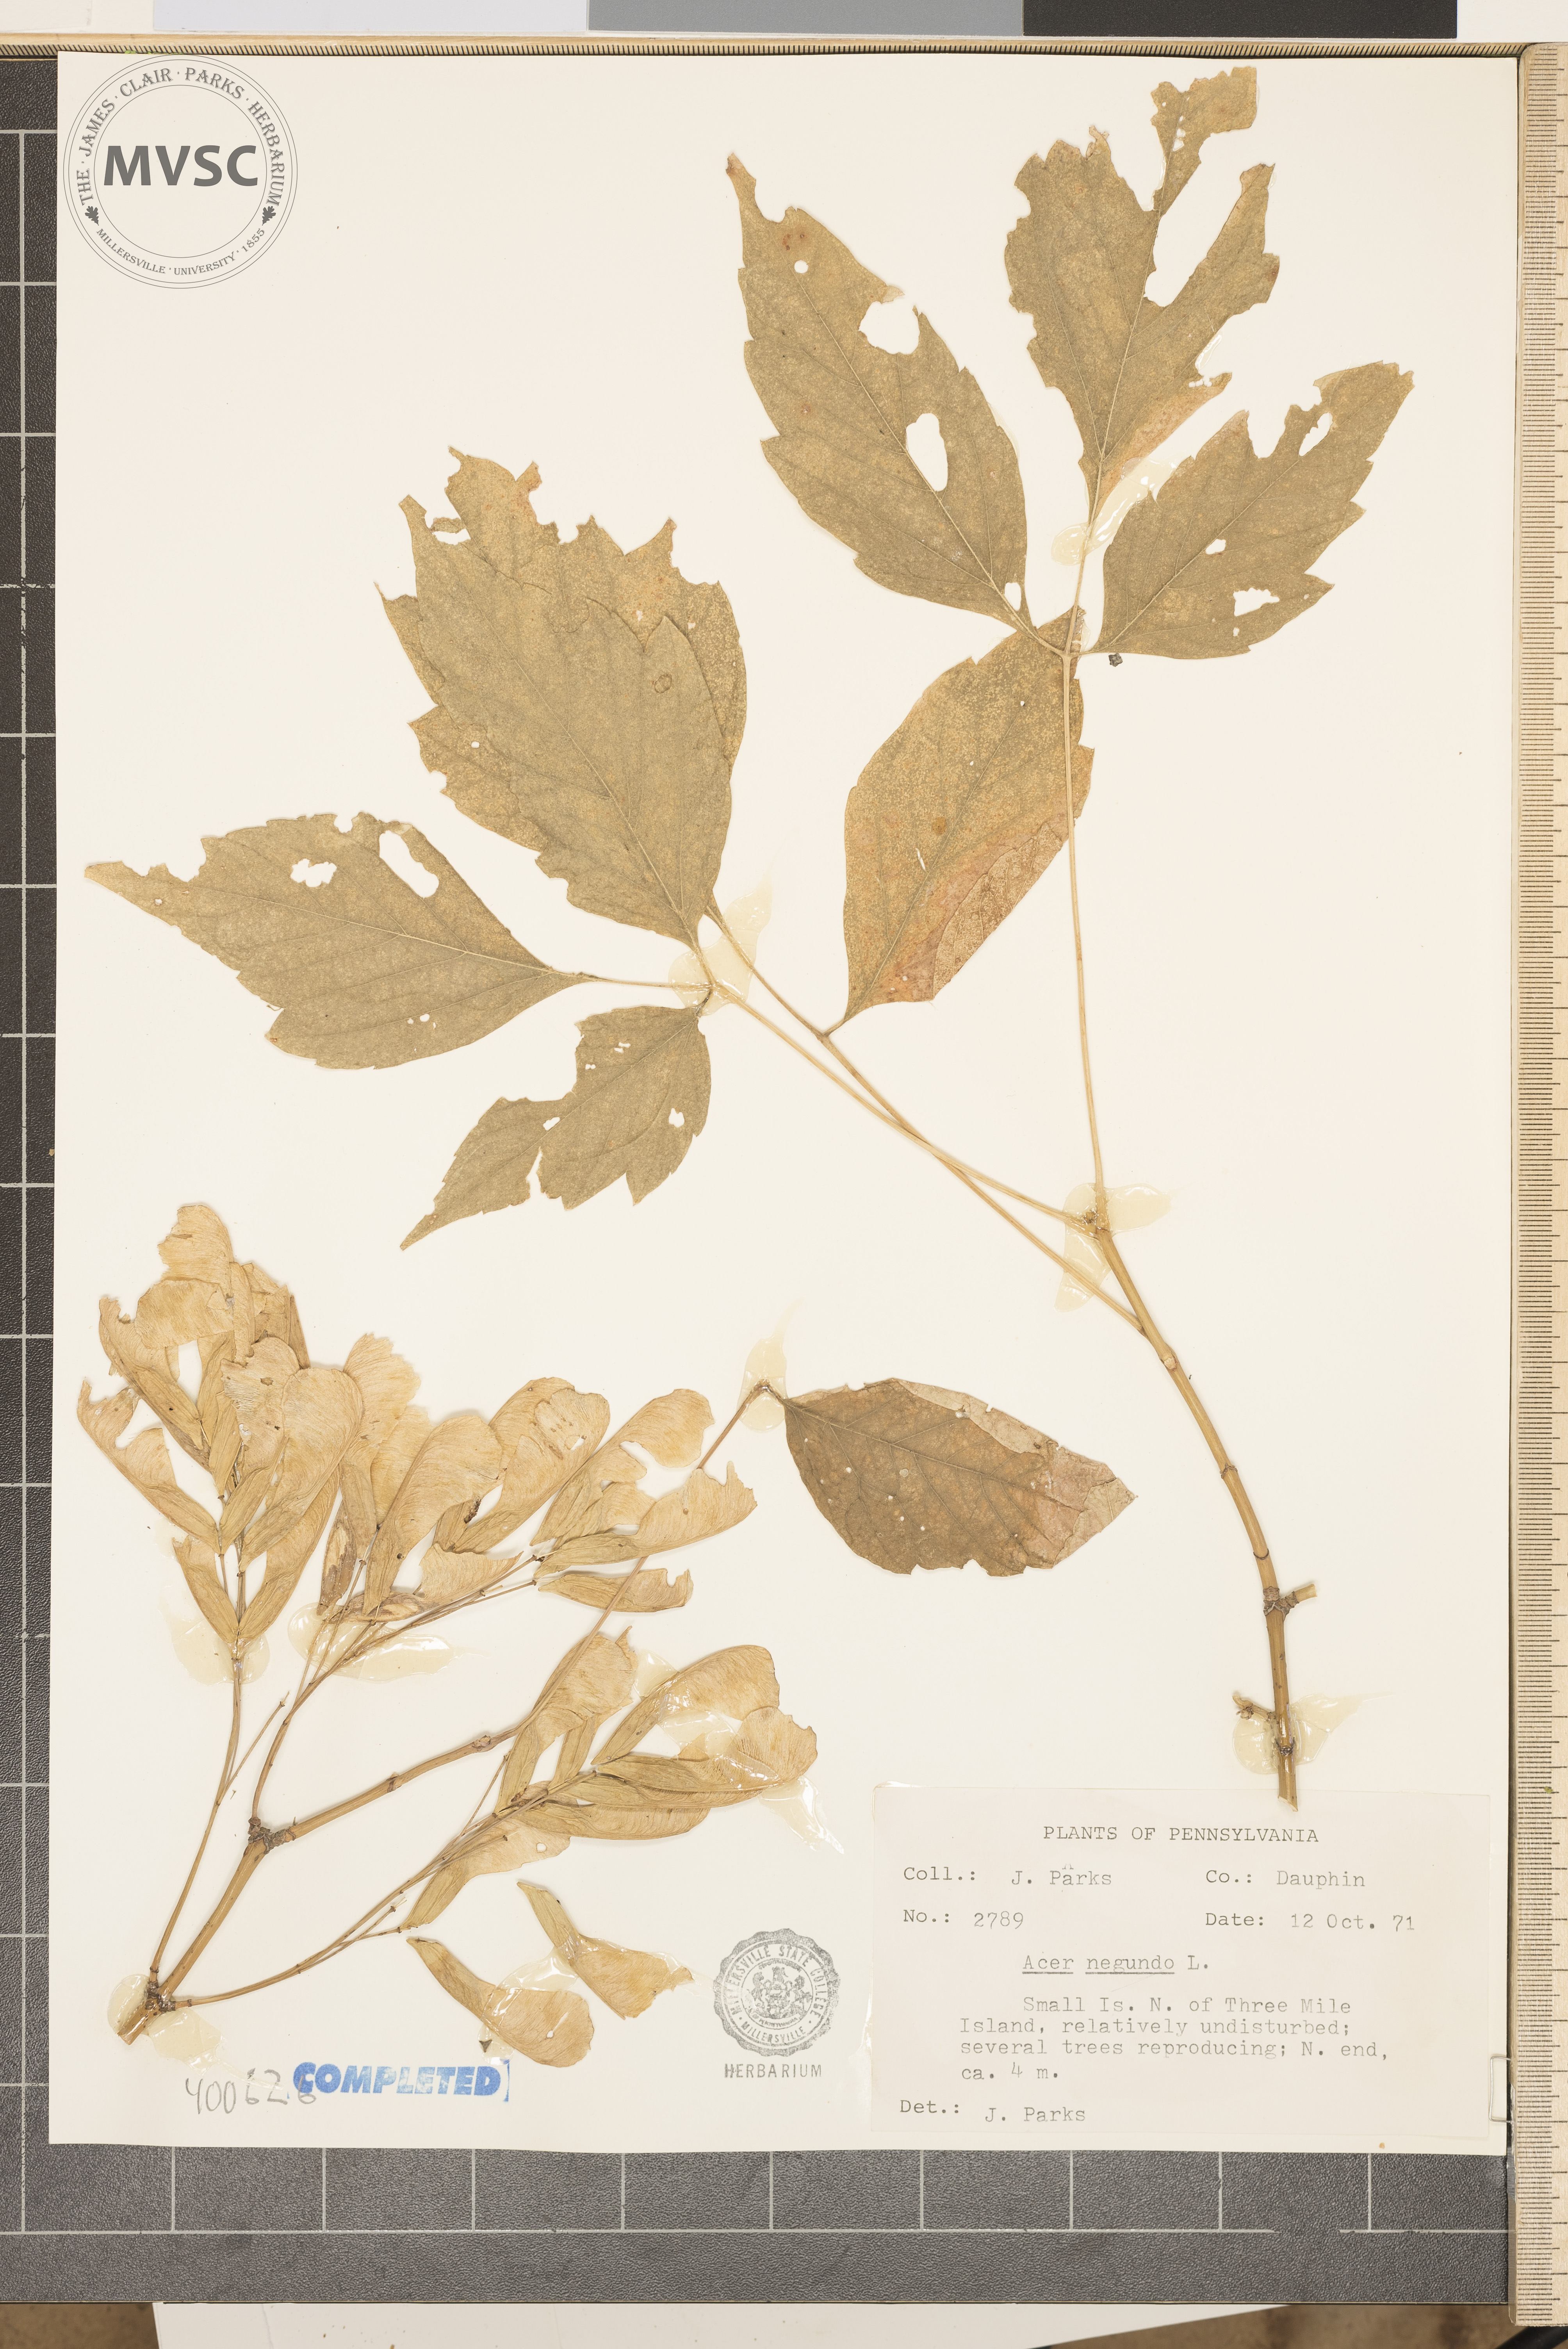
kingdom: Plantae
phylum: Tracheophyta
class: Magnoliopsida
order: Sapindales
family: Sapindaceae
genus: Acer
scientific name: Acer negundo
